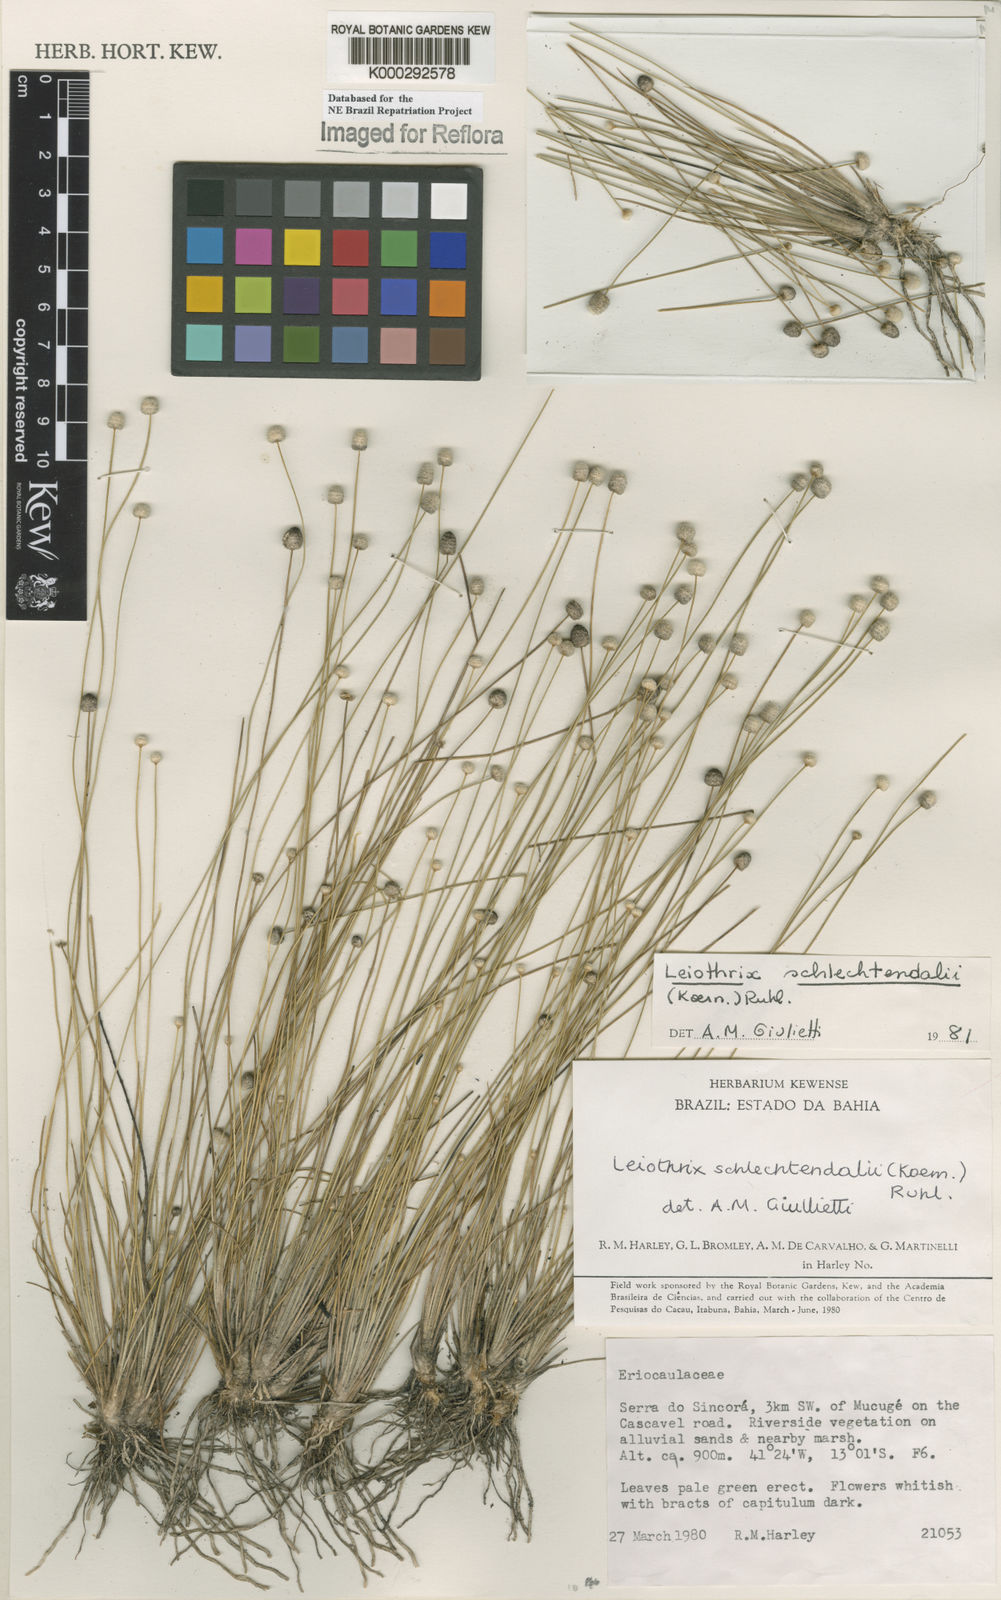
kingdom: Plantae
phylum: Tracheophyta
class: Liliopsida
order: Poales
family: Eriocaulaceae
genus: Leiothrix
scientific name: Leiothrix schlechtendalii
